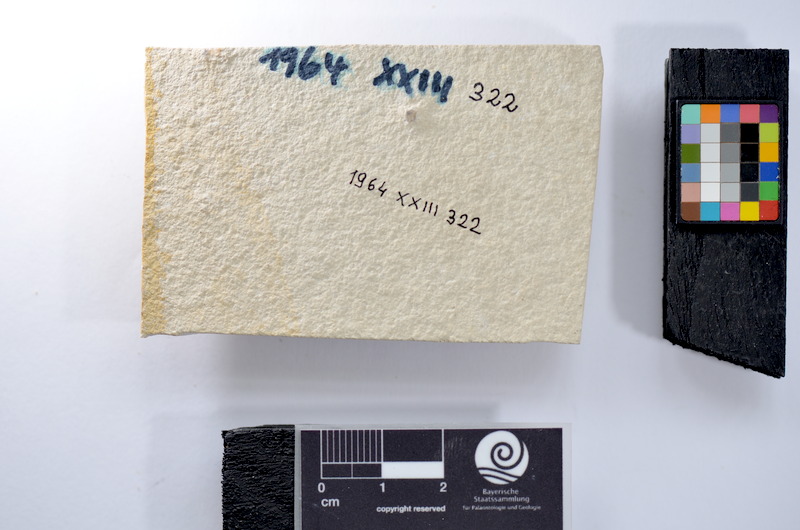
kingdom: Animalia
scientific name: Animalia
